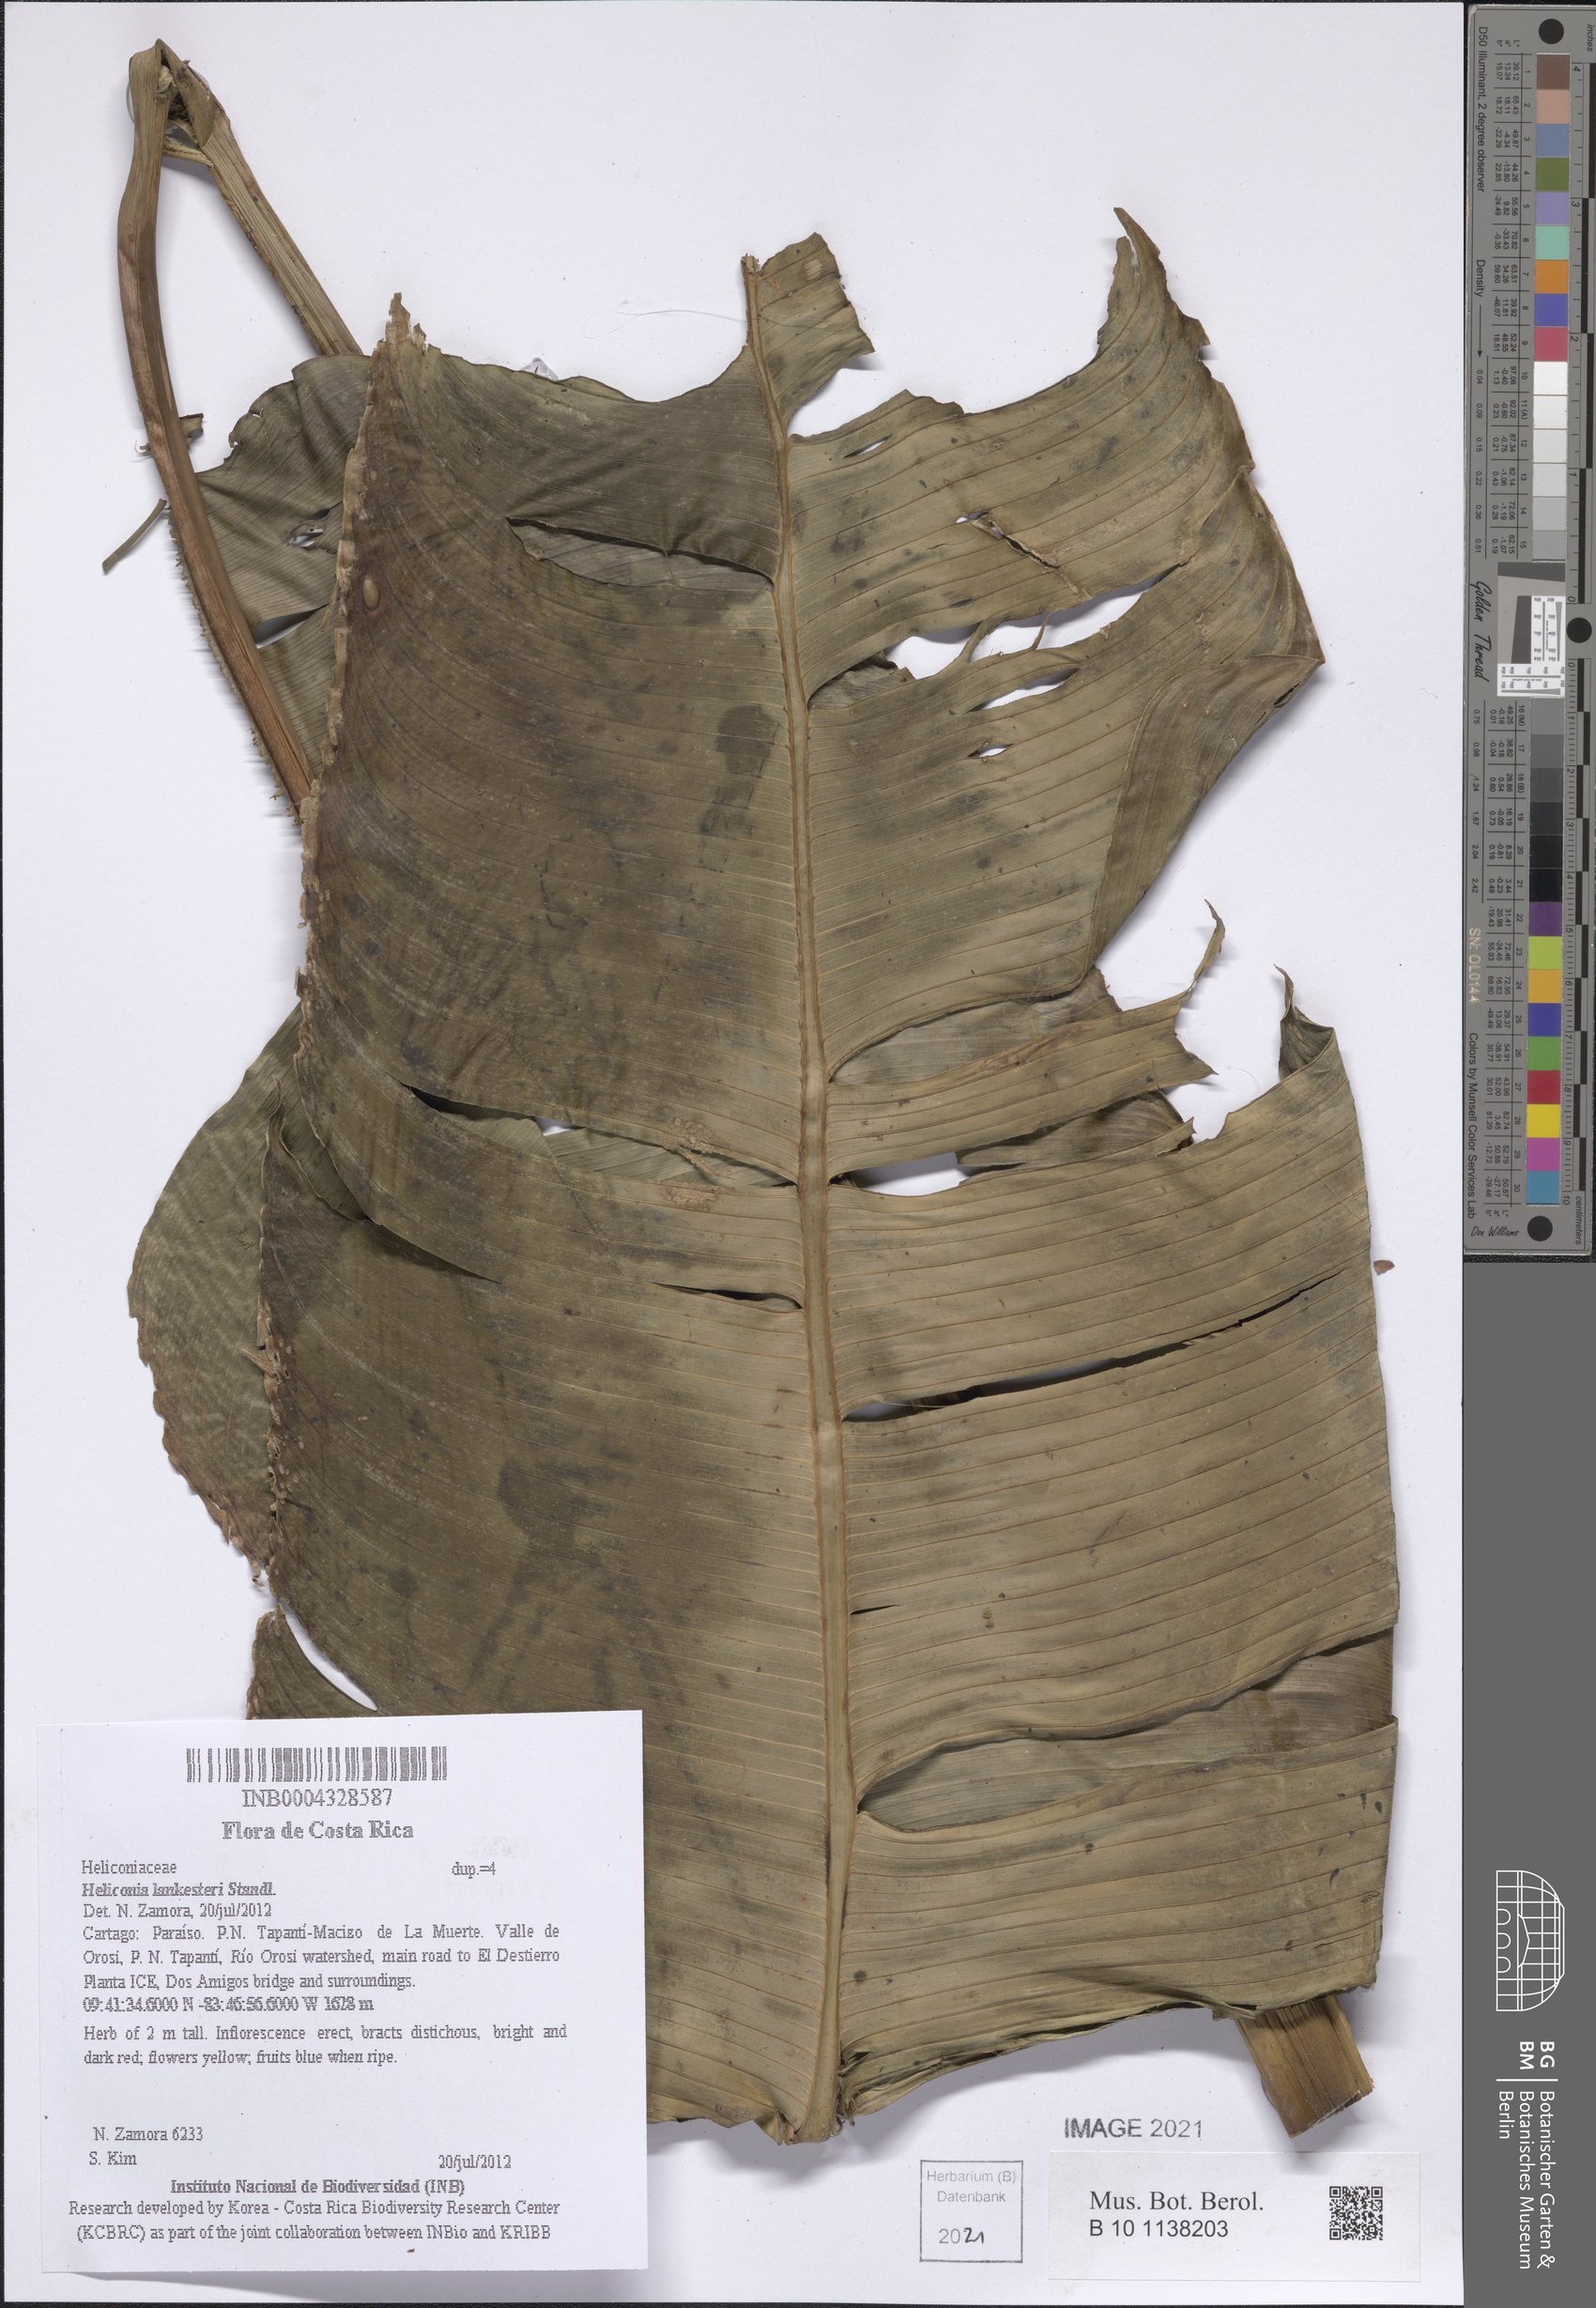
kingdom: Plantae
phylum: Tracheophyta
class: Liliopsida
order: Zingiberales
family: Heliconiaceae
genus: Heliconia
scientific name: Heliconia lankesteri
